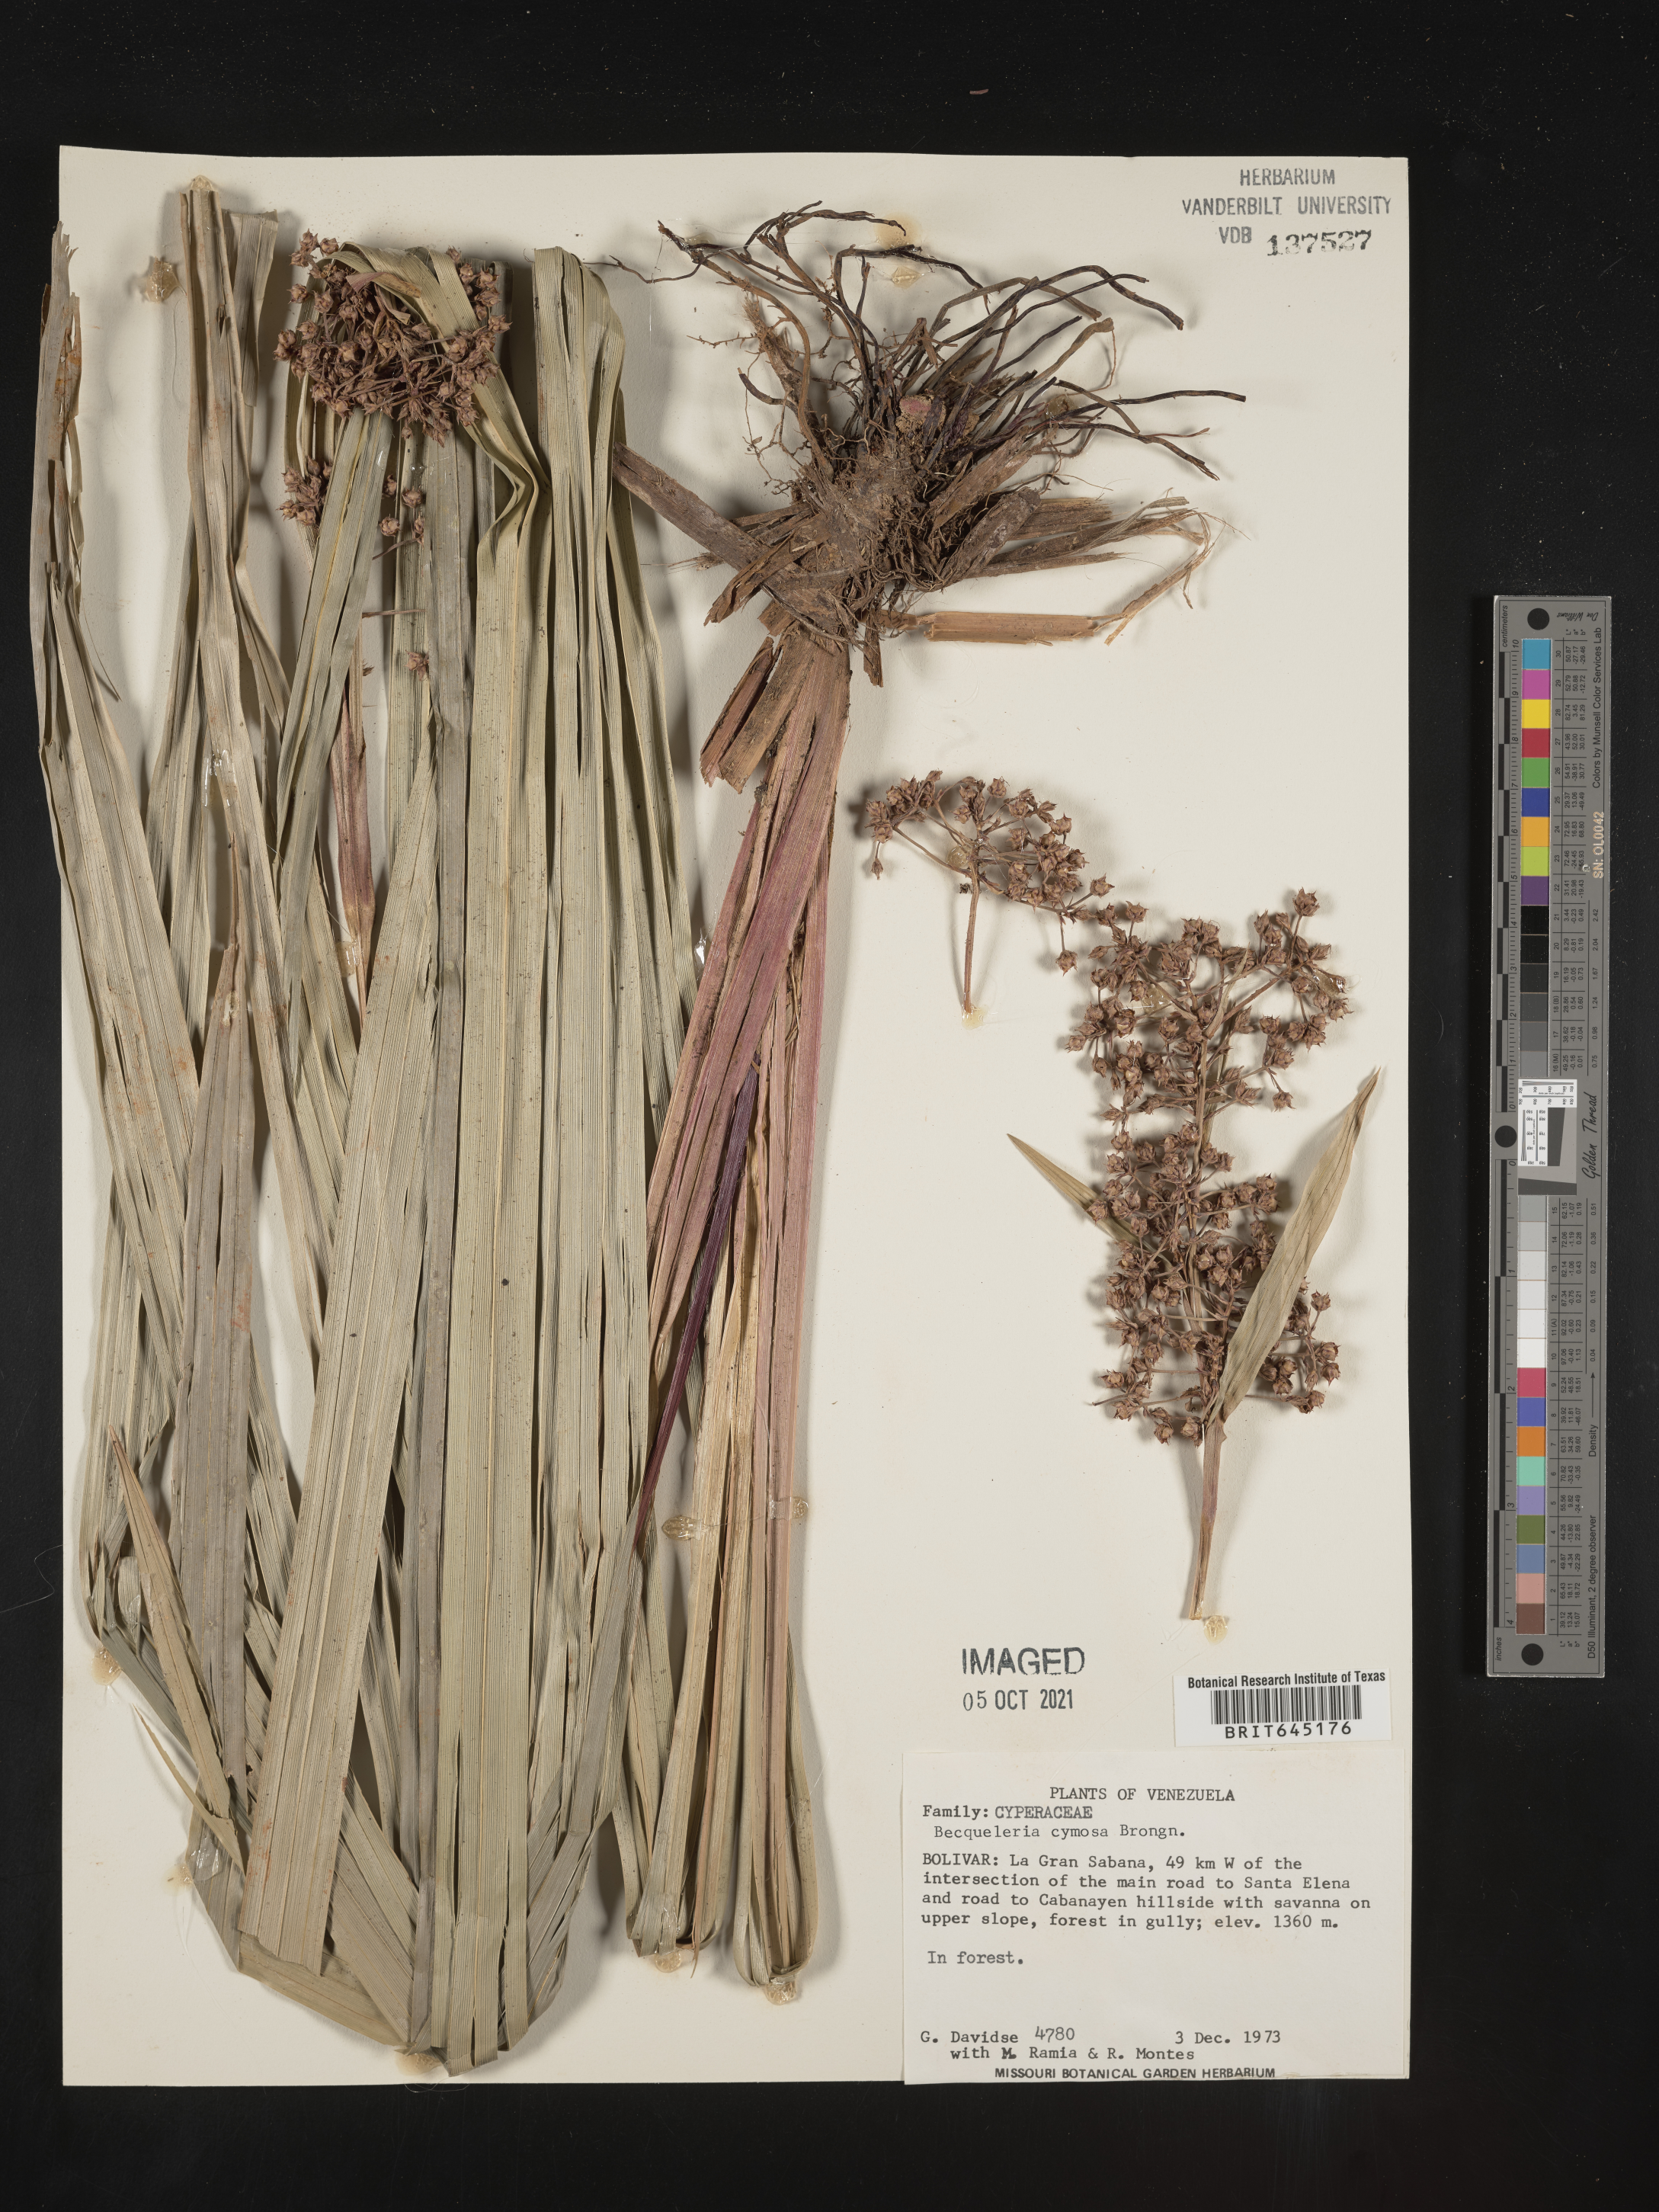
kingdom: Plantae
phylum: Tracheophyta
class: Liliopsida
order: Poales
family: Cyperaceae
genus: Becquerelia
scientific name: Becquerelia merkeliana
